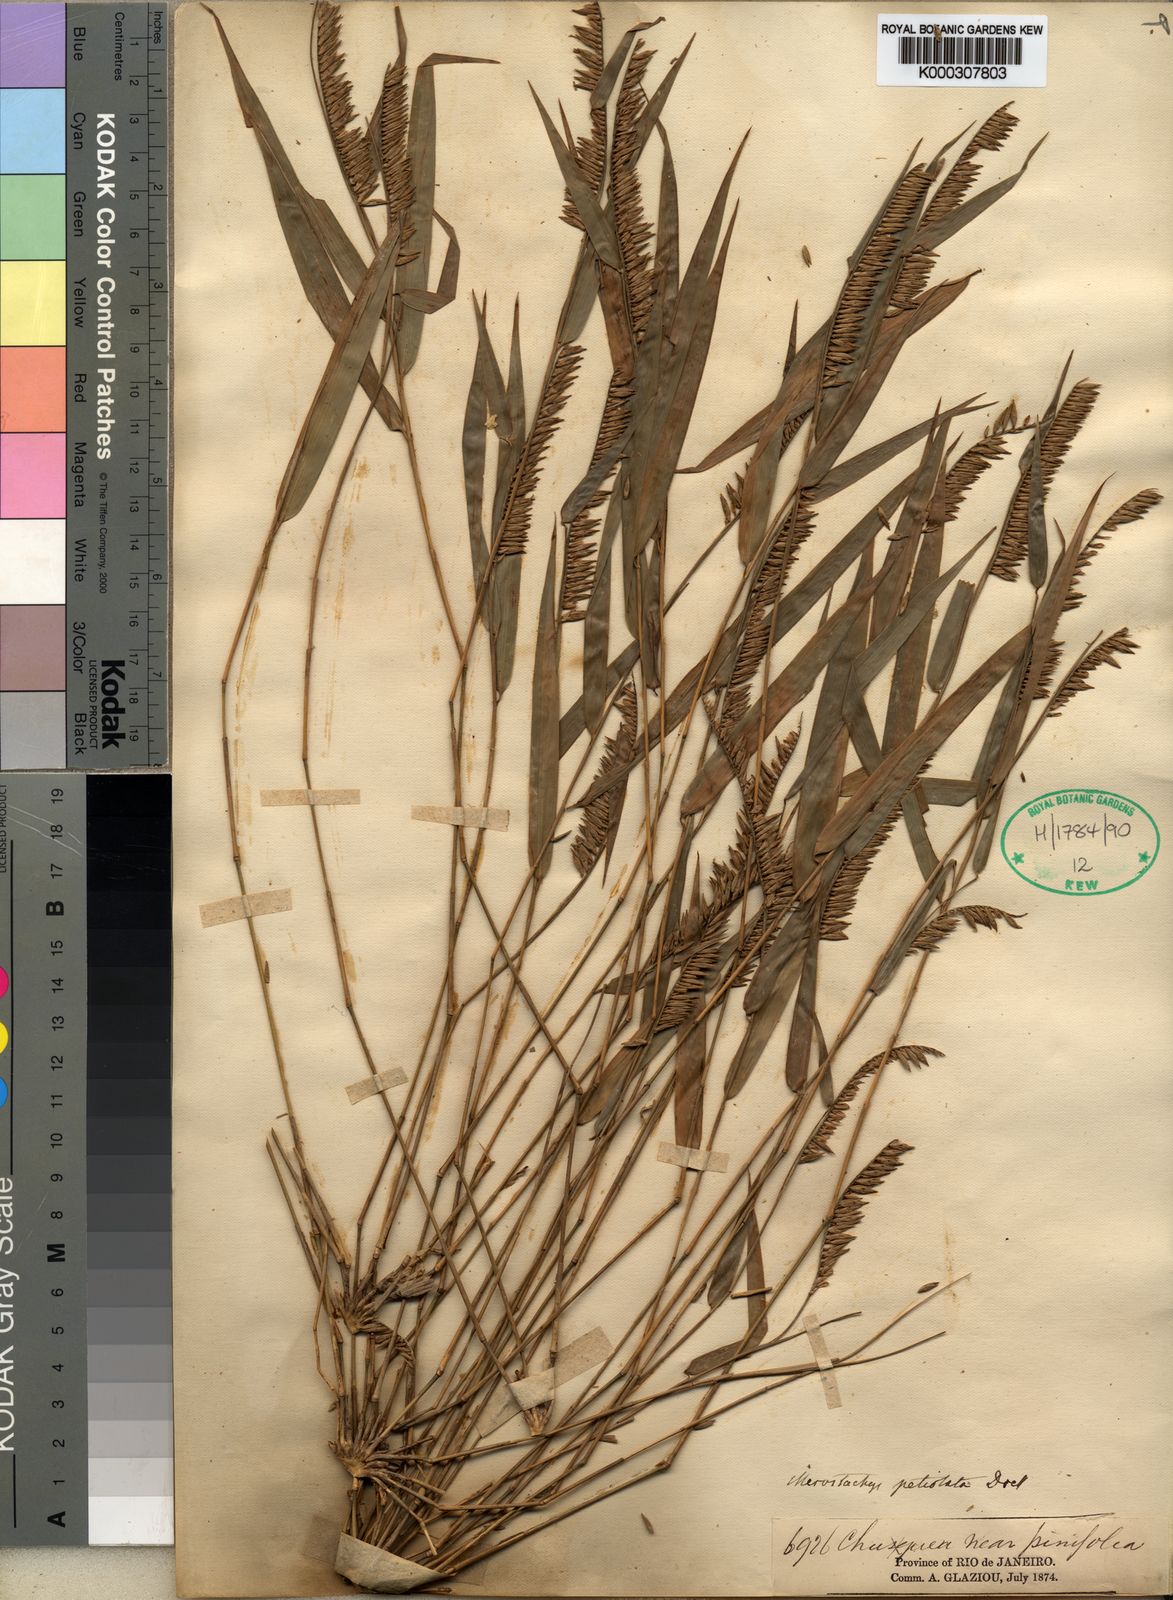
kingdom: Plantae
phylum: Tracheophyta
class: Liliopsida
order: Poales
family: Poaceae
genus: Merostachys
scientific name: Merostachys petiolata
